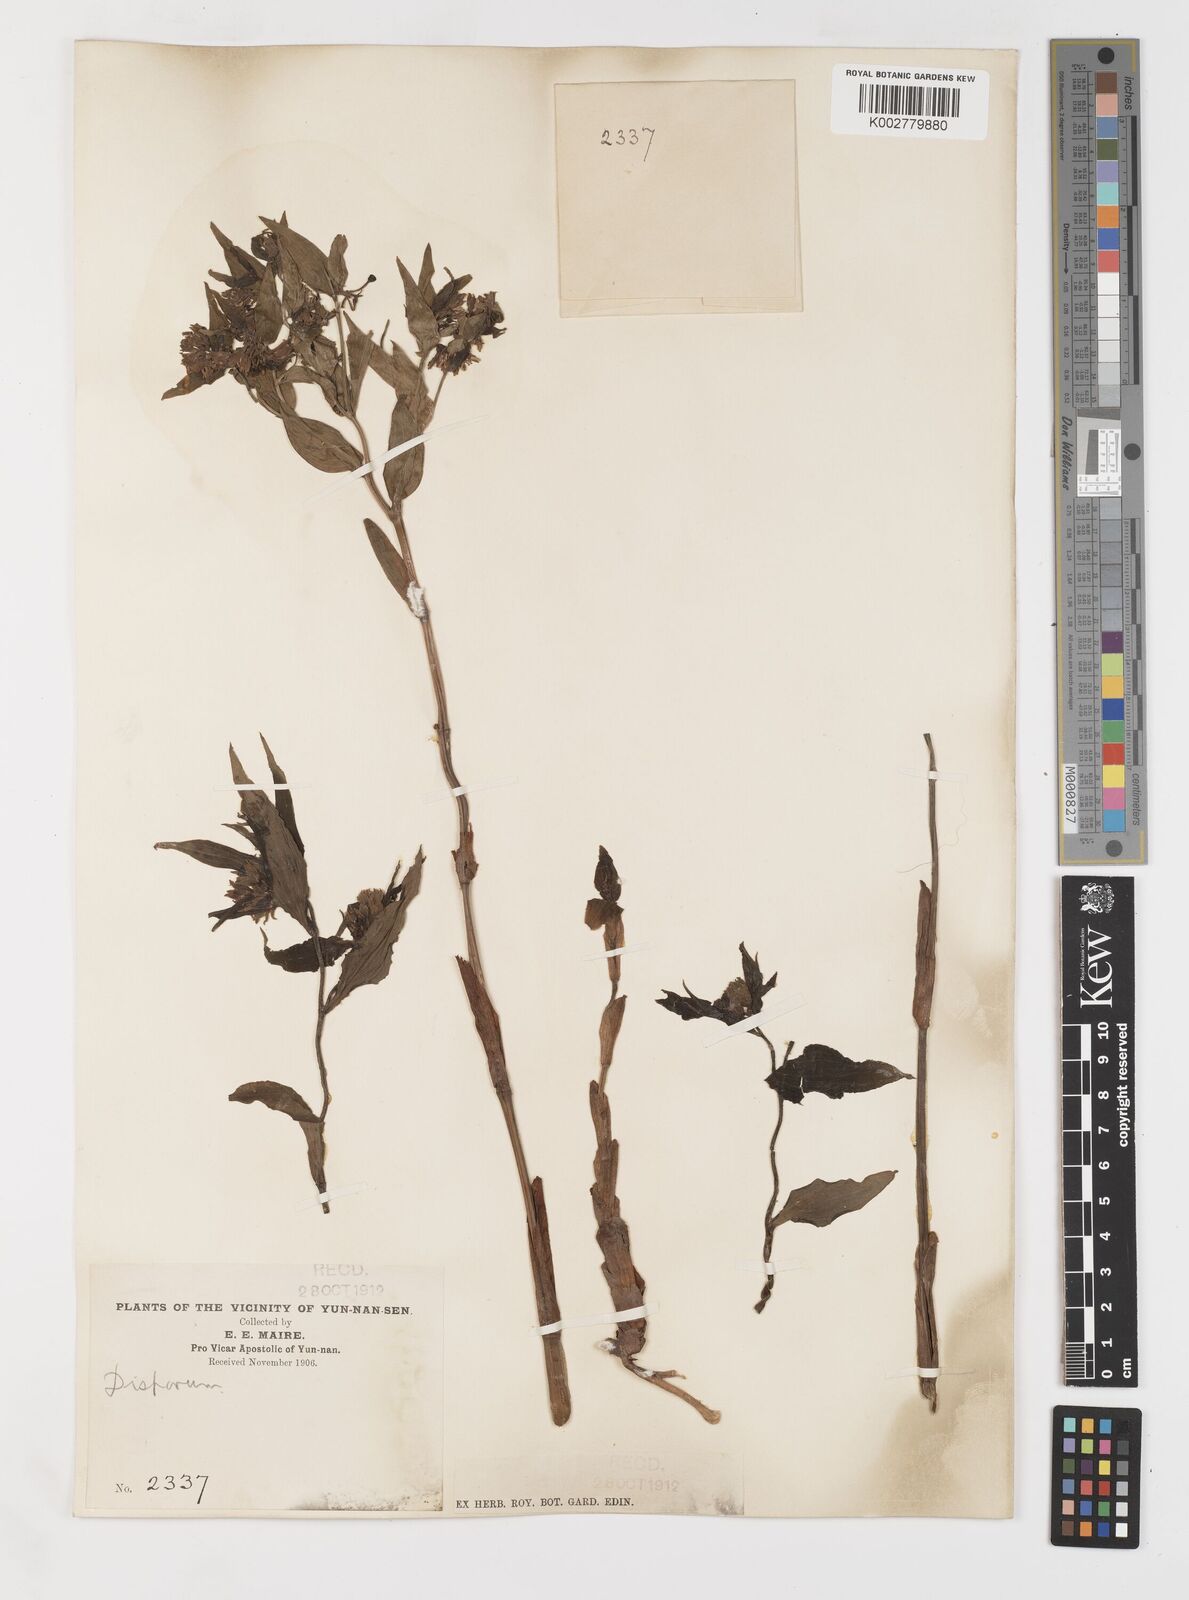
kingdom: Plantae
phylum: Tracheophyta
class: Liliopsida
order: Liliales
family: Colchicaceae
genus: Disporum
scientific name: Disporum
